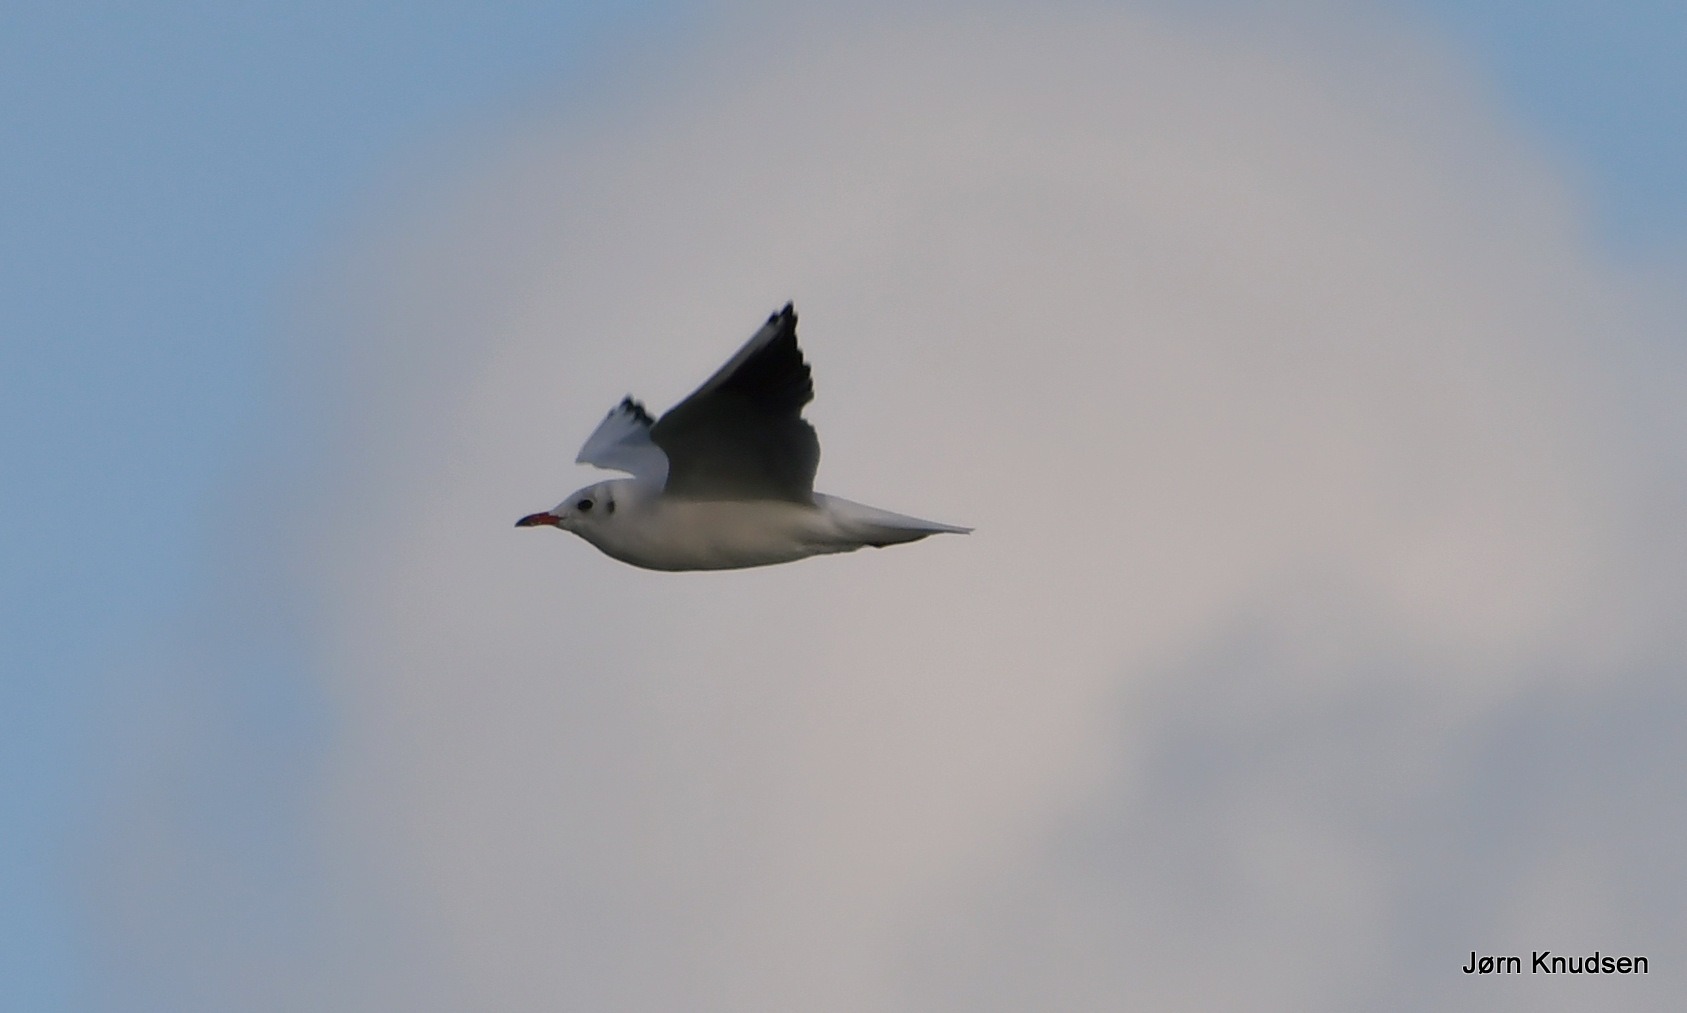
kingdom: Animalia
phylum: Chordata
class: Aves
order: Charadriiformes
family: Laridae
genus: Chroicocephalus
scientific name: Chroicocephalus ridibundus
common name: Hættemåge
